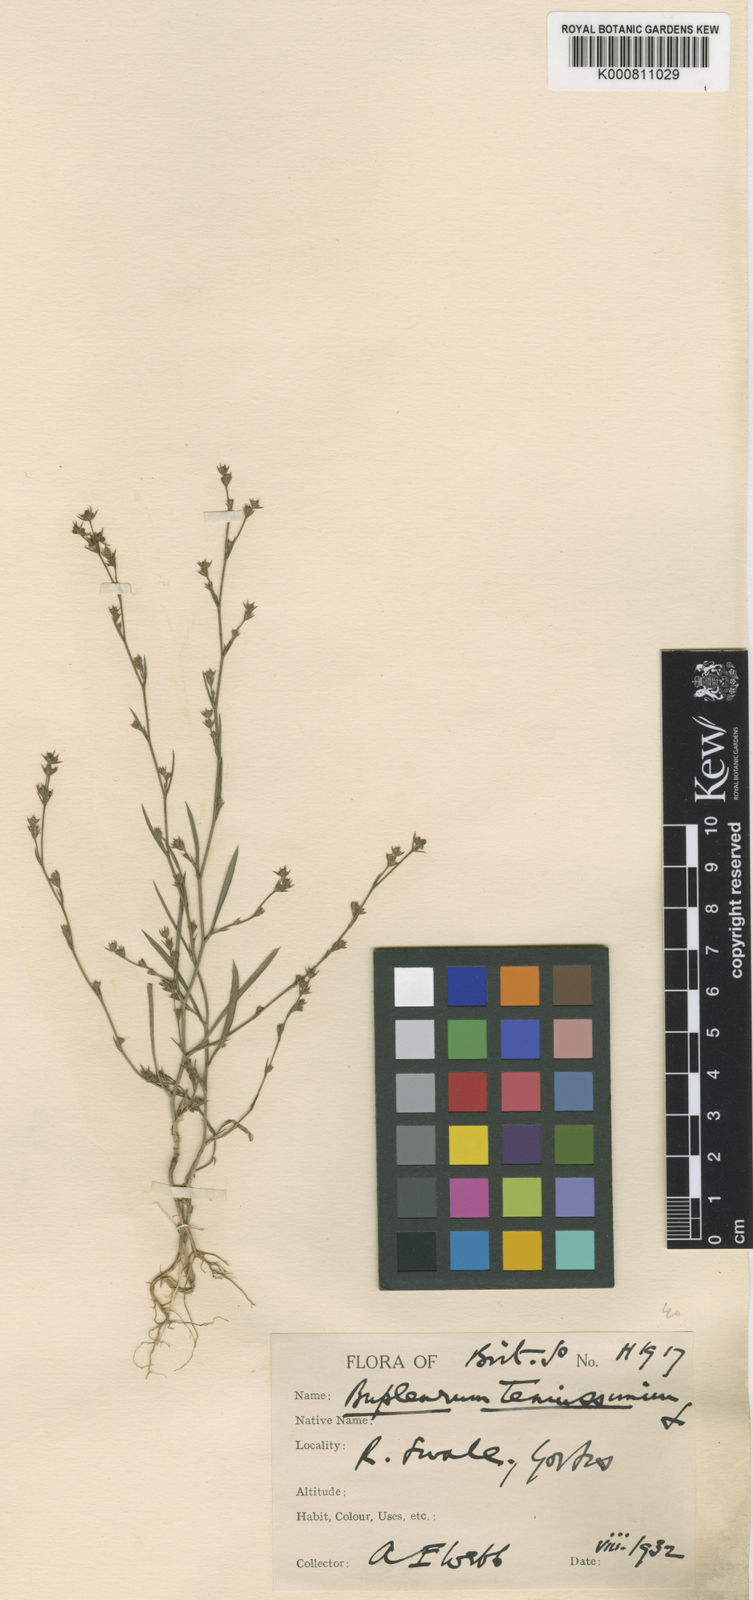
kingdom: Plantae
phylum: Tracheophyta
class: Magnoliopsida
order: Apiales
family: Apiaceae
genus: Bupleurum
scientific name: Bupleurum tenuissimum
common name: Slender hare's-ear
